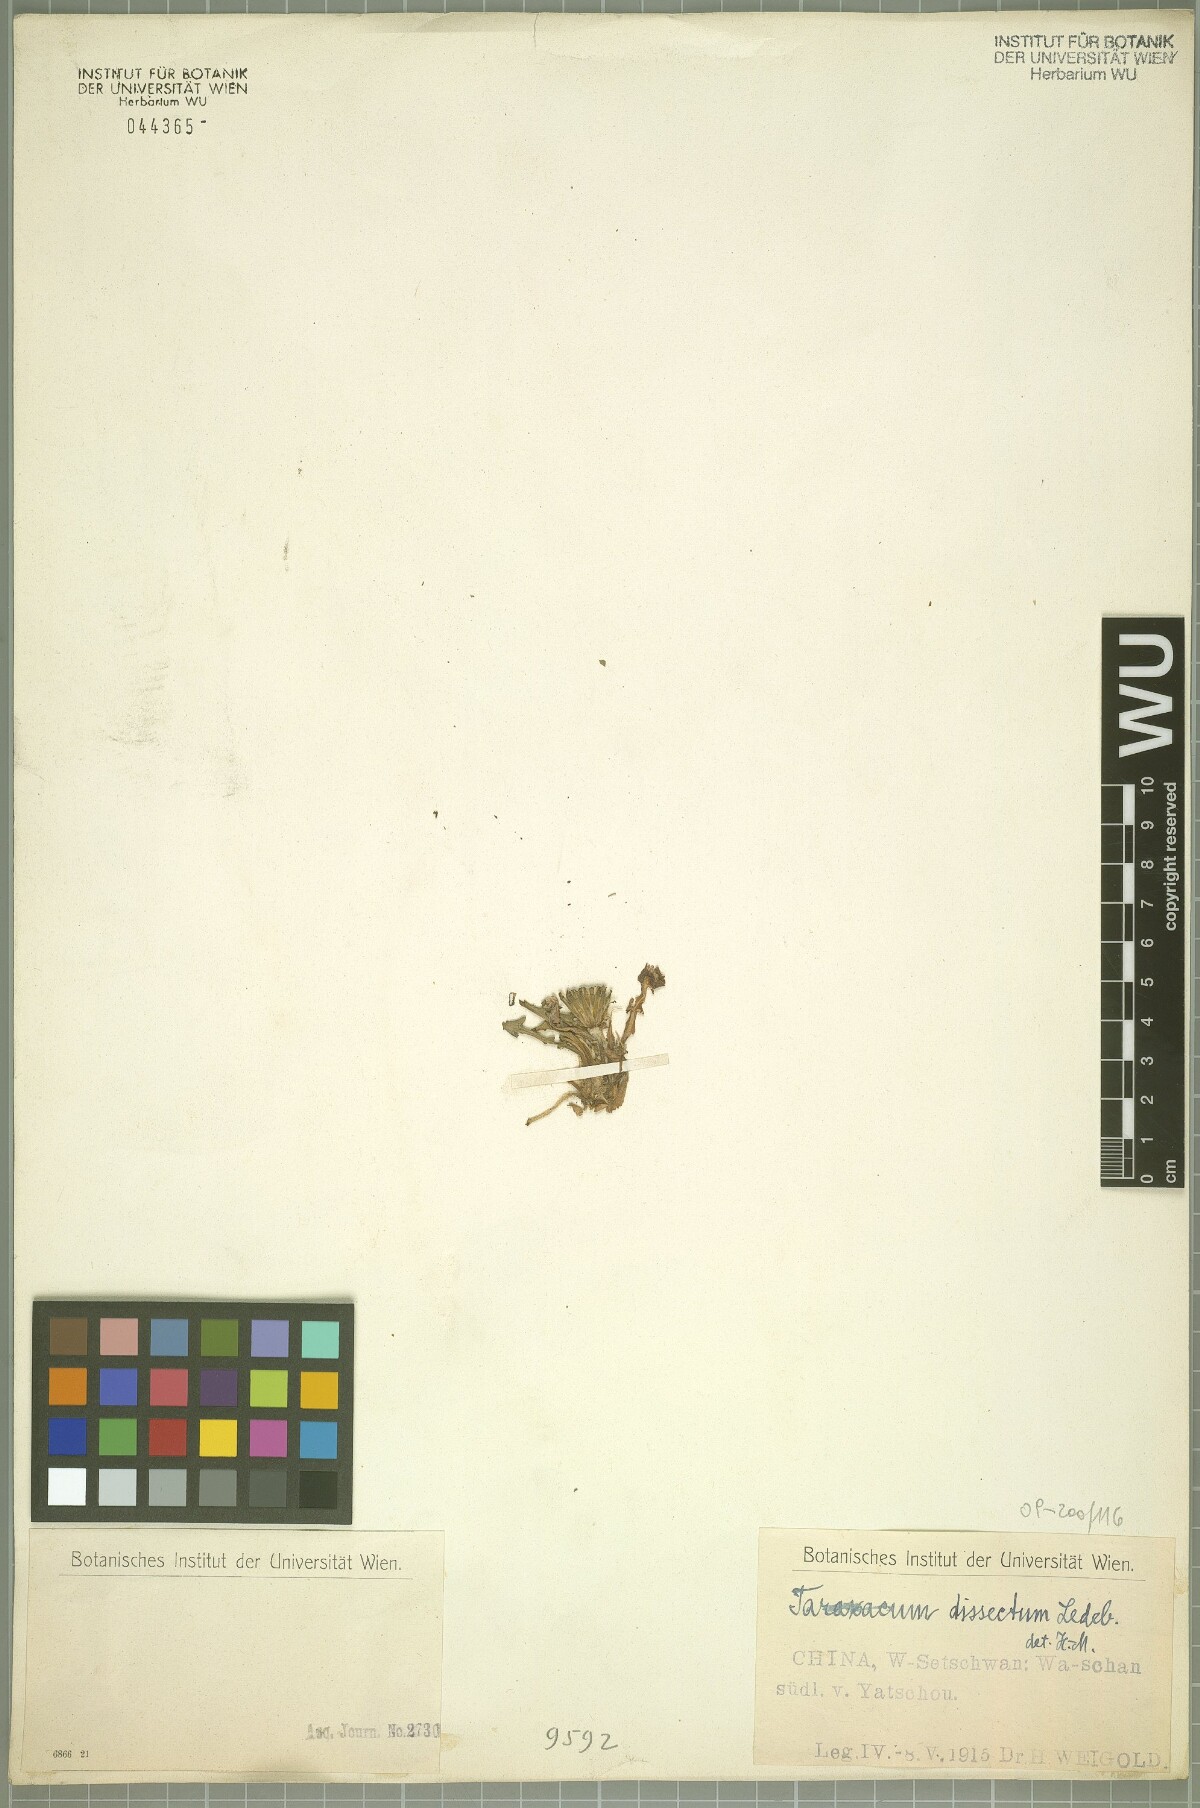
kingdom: Plantae
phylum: Tracheophyta
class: Magnoliopsida
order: Asterales
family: Asteraceae
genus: Taraxacum
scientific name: Taraxacum dissectum
